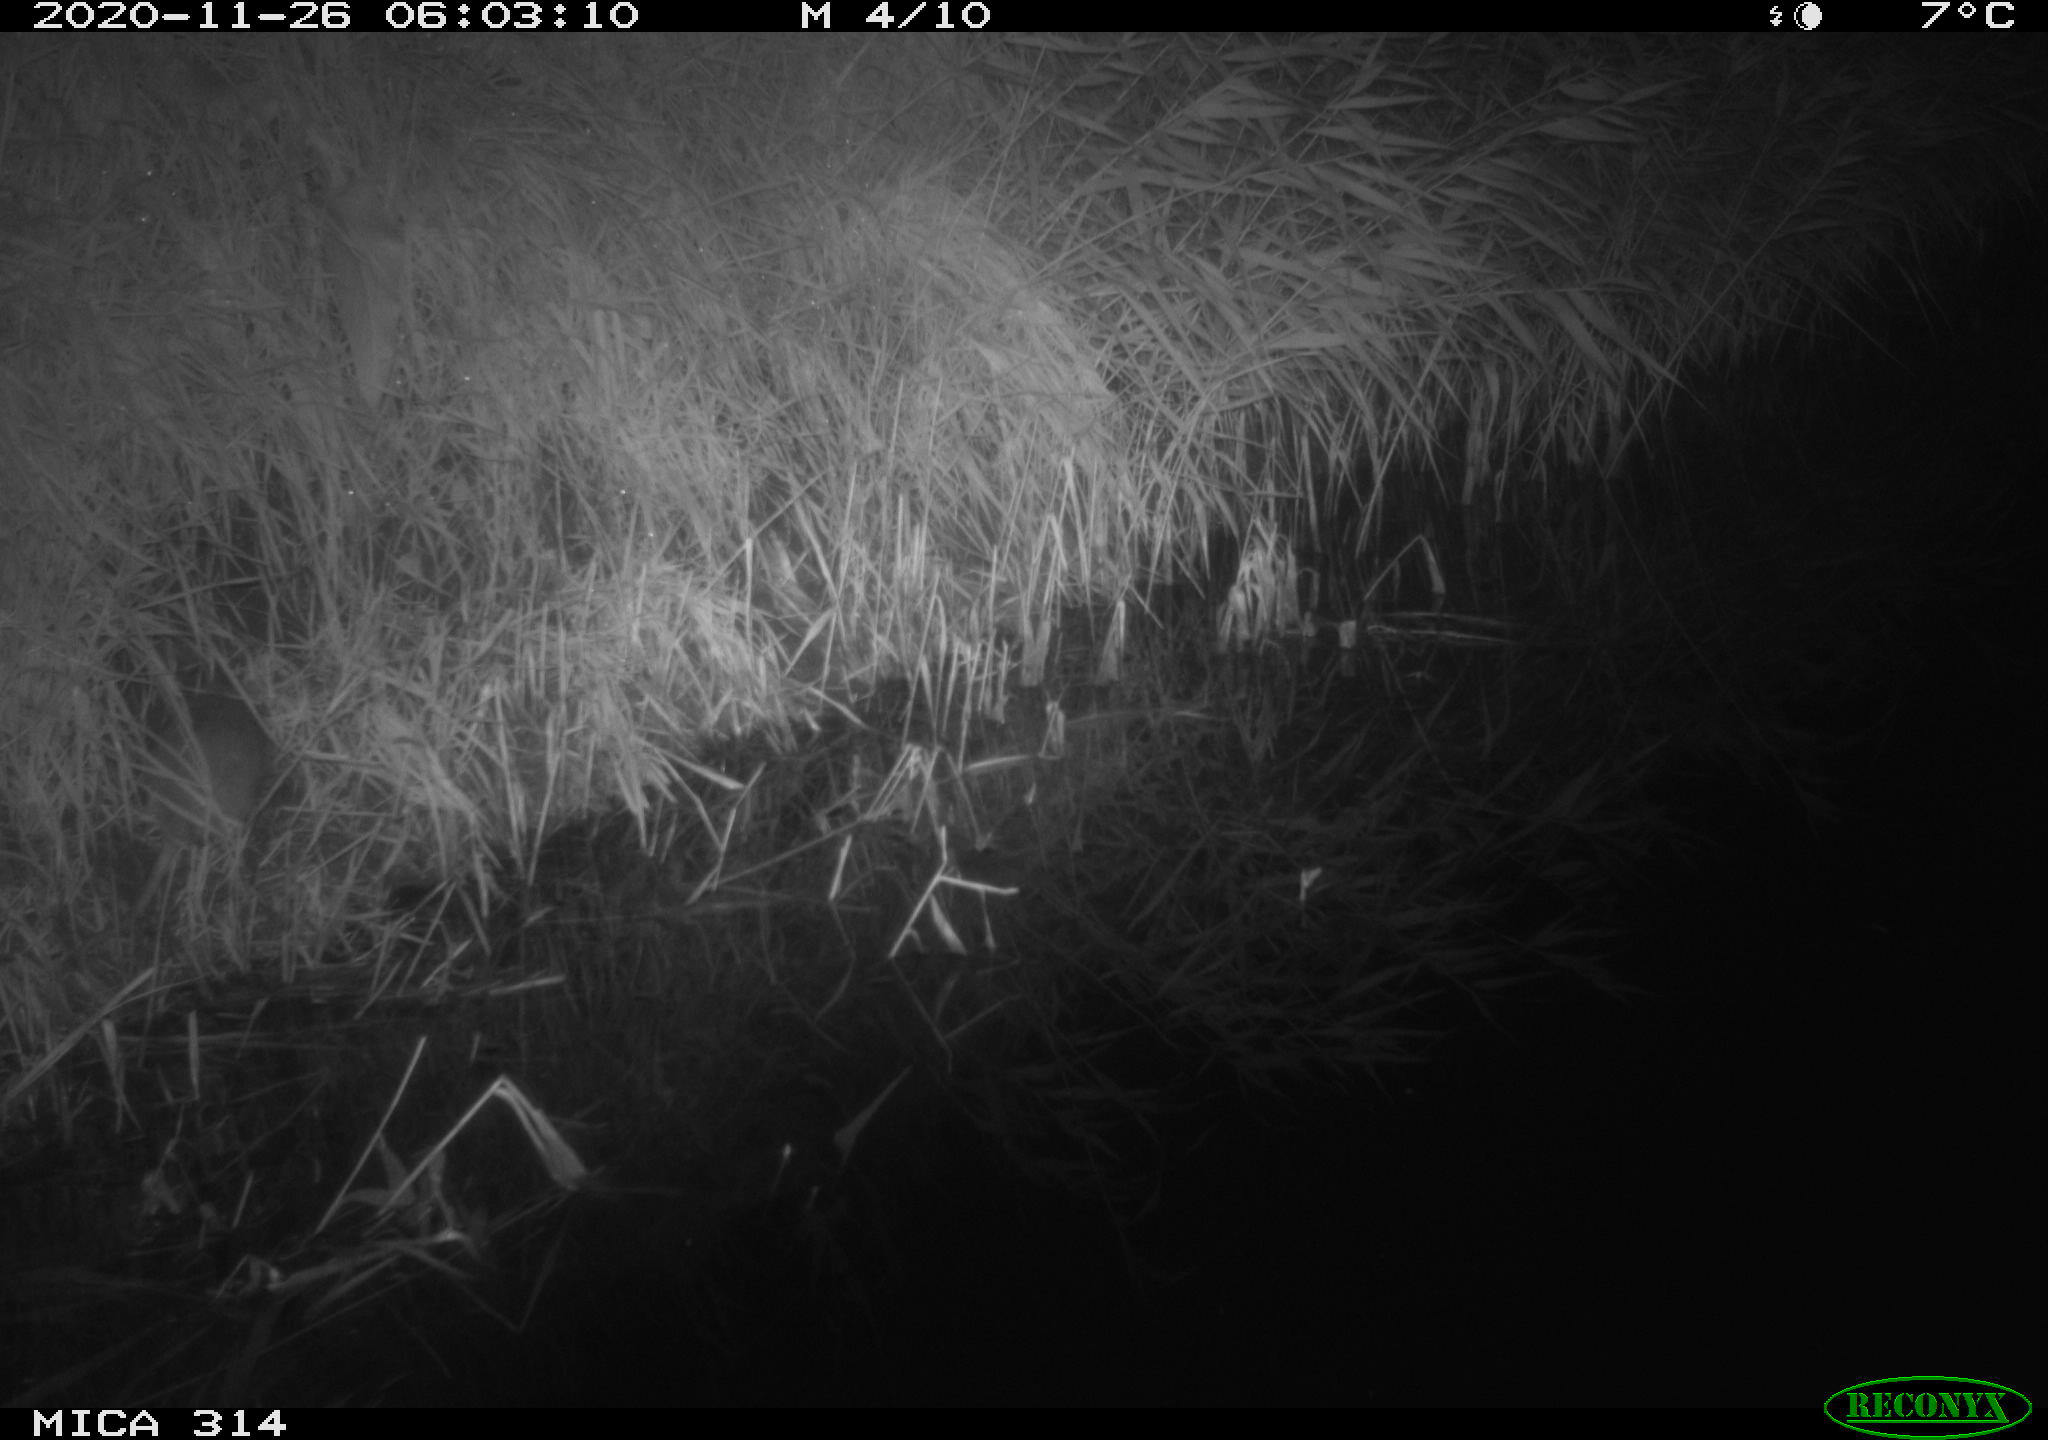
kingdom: Animalia
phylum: Chordata
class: Mammalia
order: Rodentia
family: Muridae
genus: Rattus
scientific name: Rattus norvegicus
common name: Brown rat
